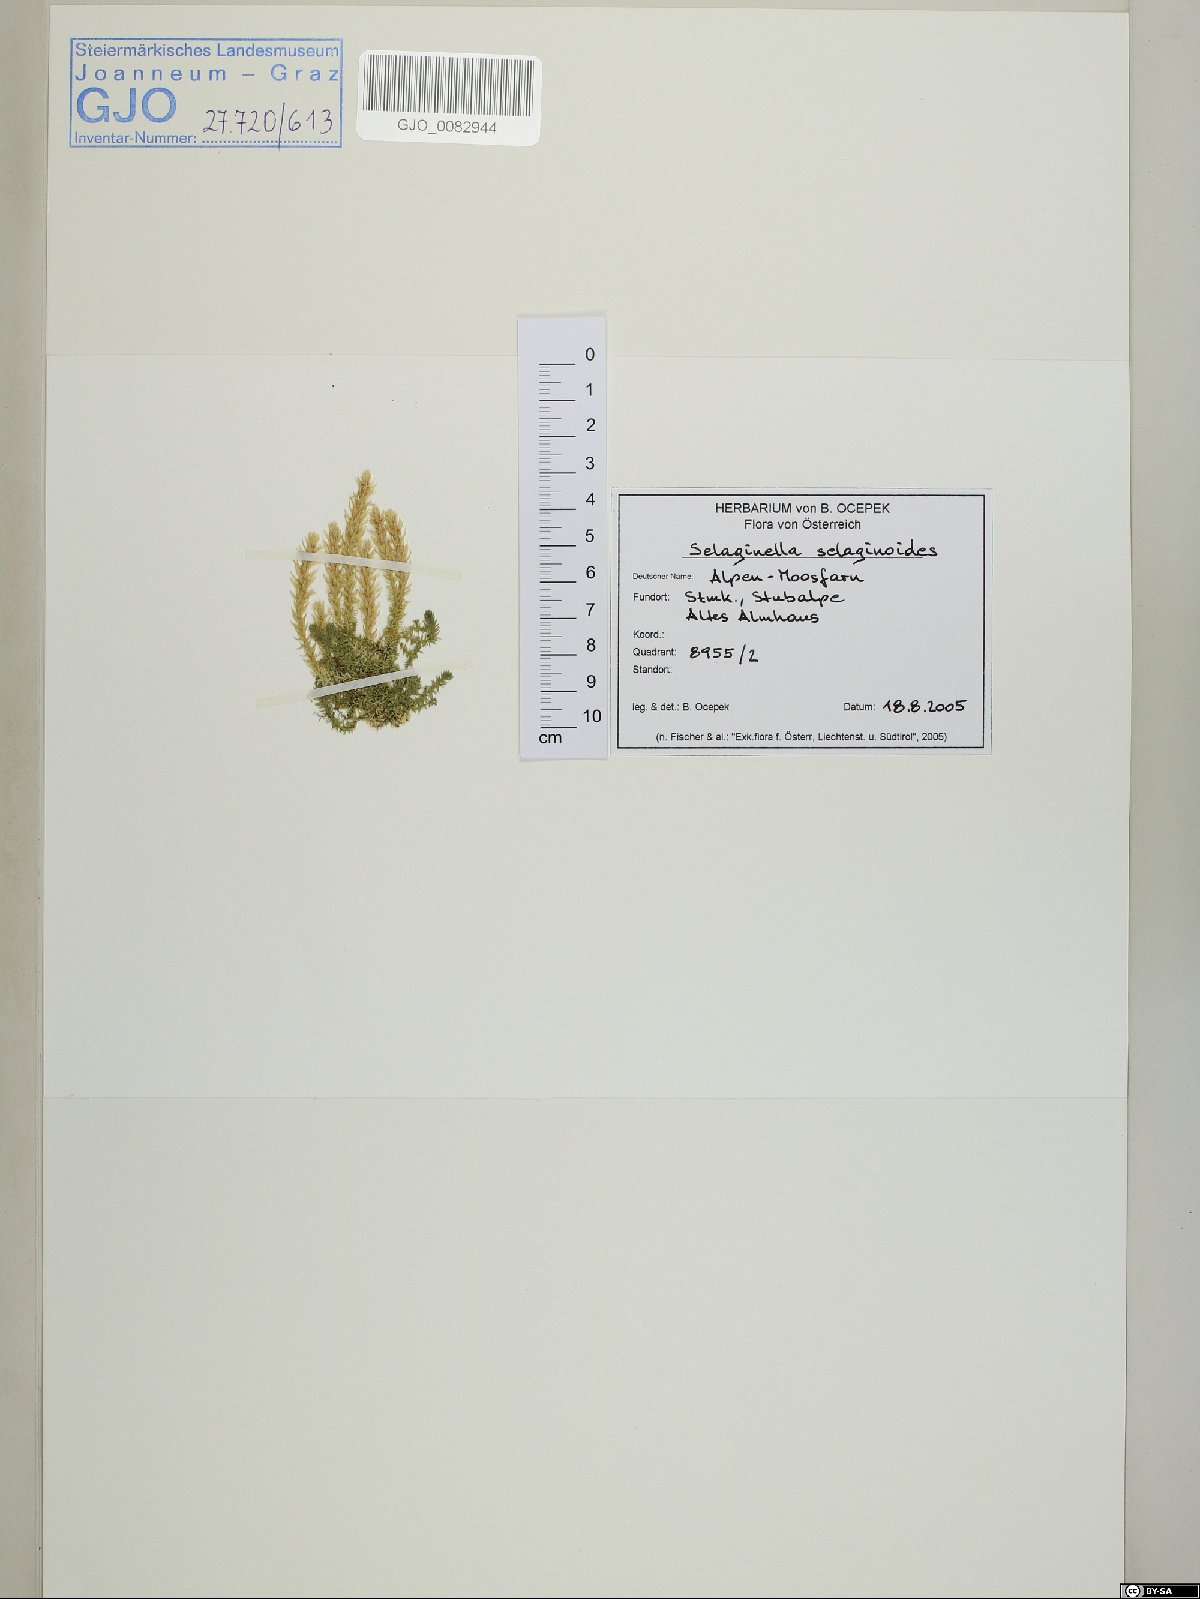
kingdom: Plantae
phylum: Tracheophyta
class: Lycopodiopsida
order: Selaginellales
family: Selaginellaceae
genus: Selaginella
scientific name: Selaginella selaginoides
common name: Prickly mountain-moss
